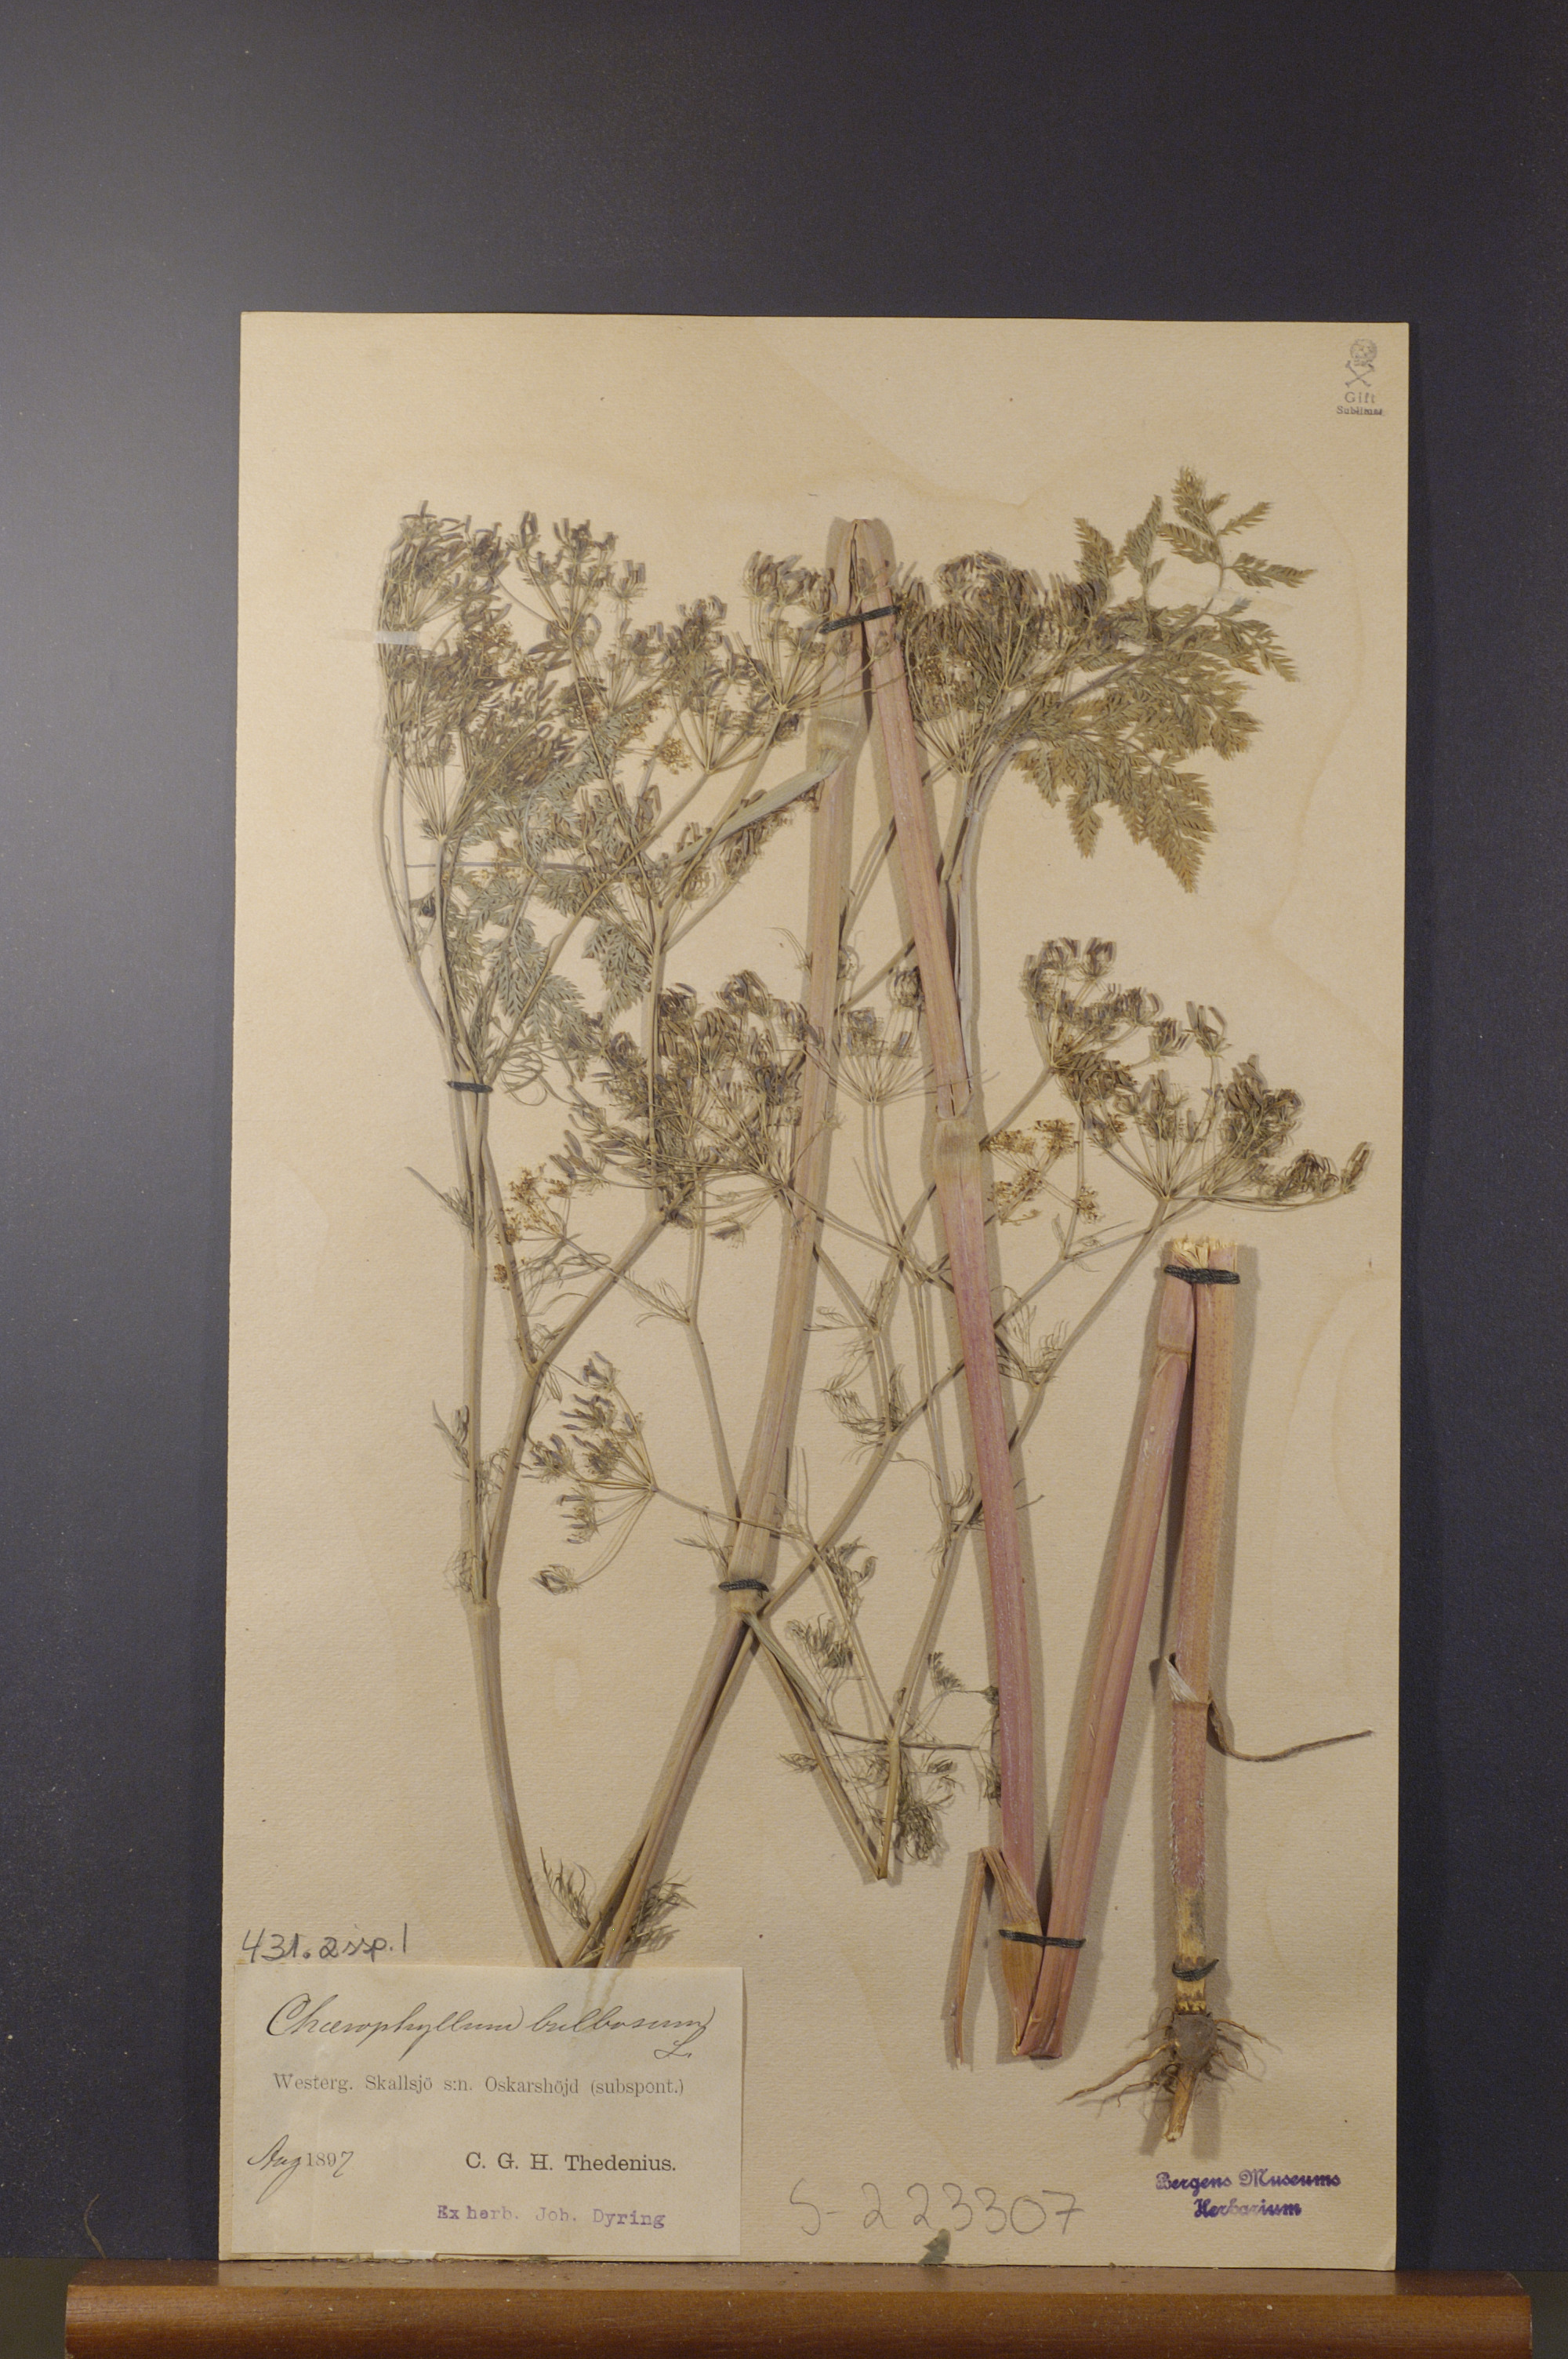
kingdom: Plantae
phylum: Tracheophyta
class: Magnoliopsida
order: Apiales
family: Apiaceae
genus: Chaerophyllum
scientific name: Chaerophyllum bulbosum
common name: Bulbous chervil
